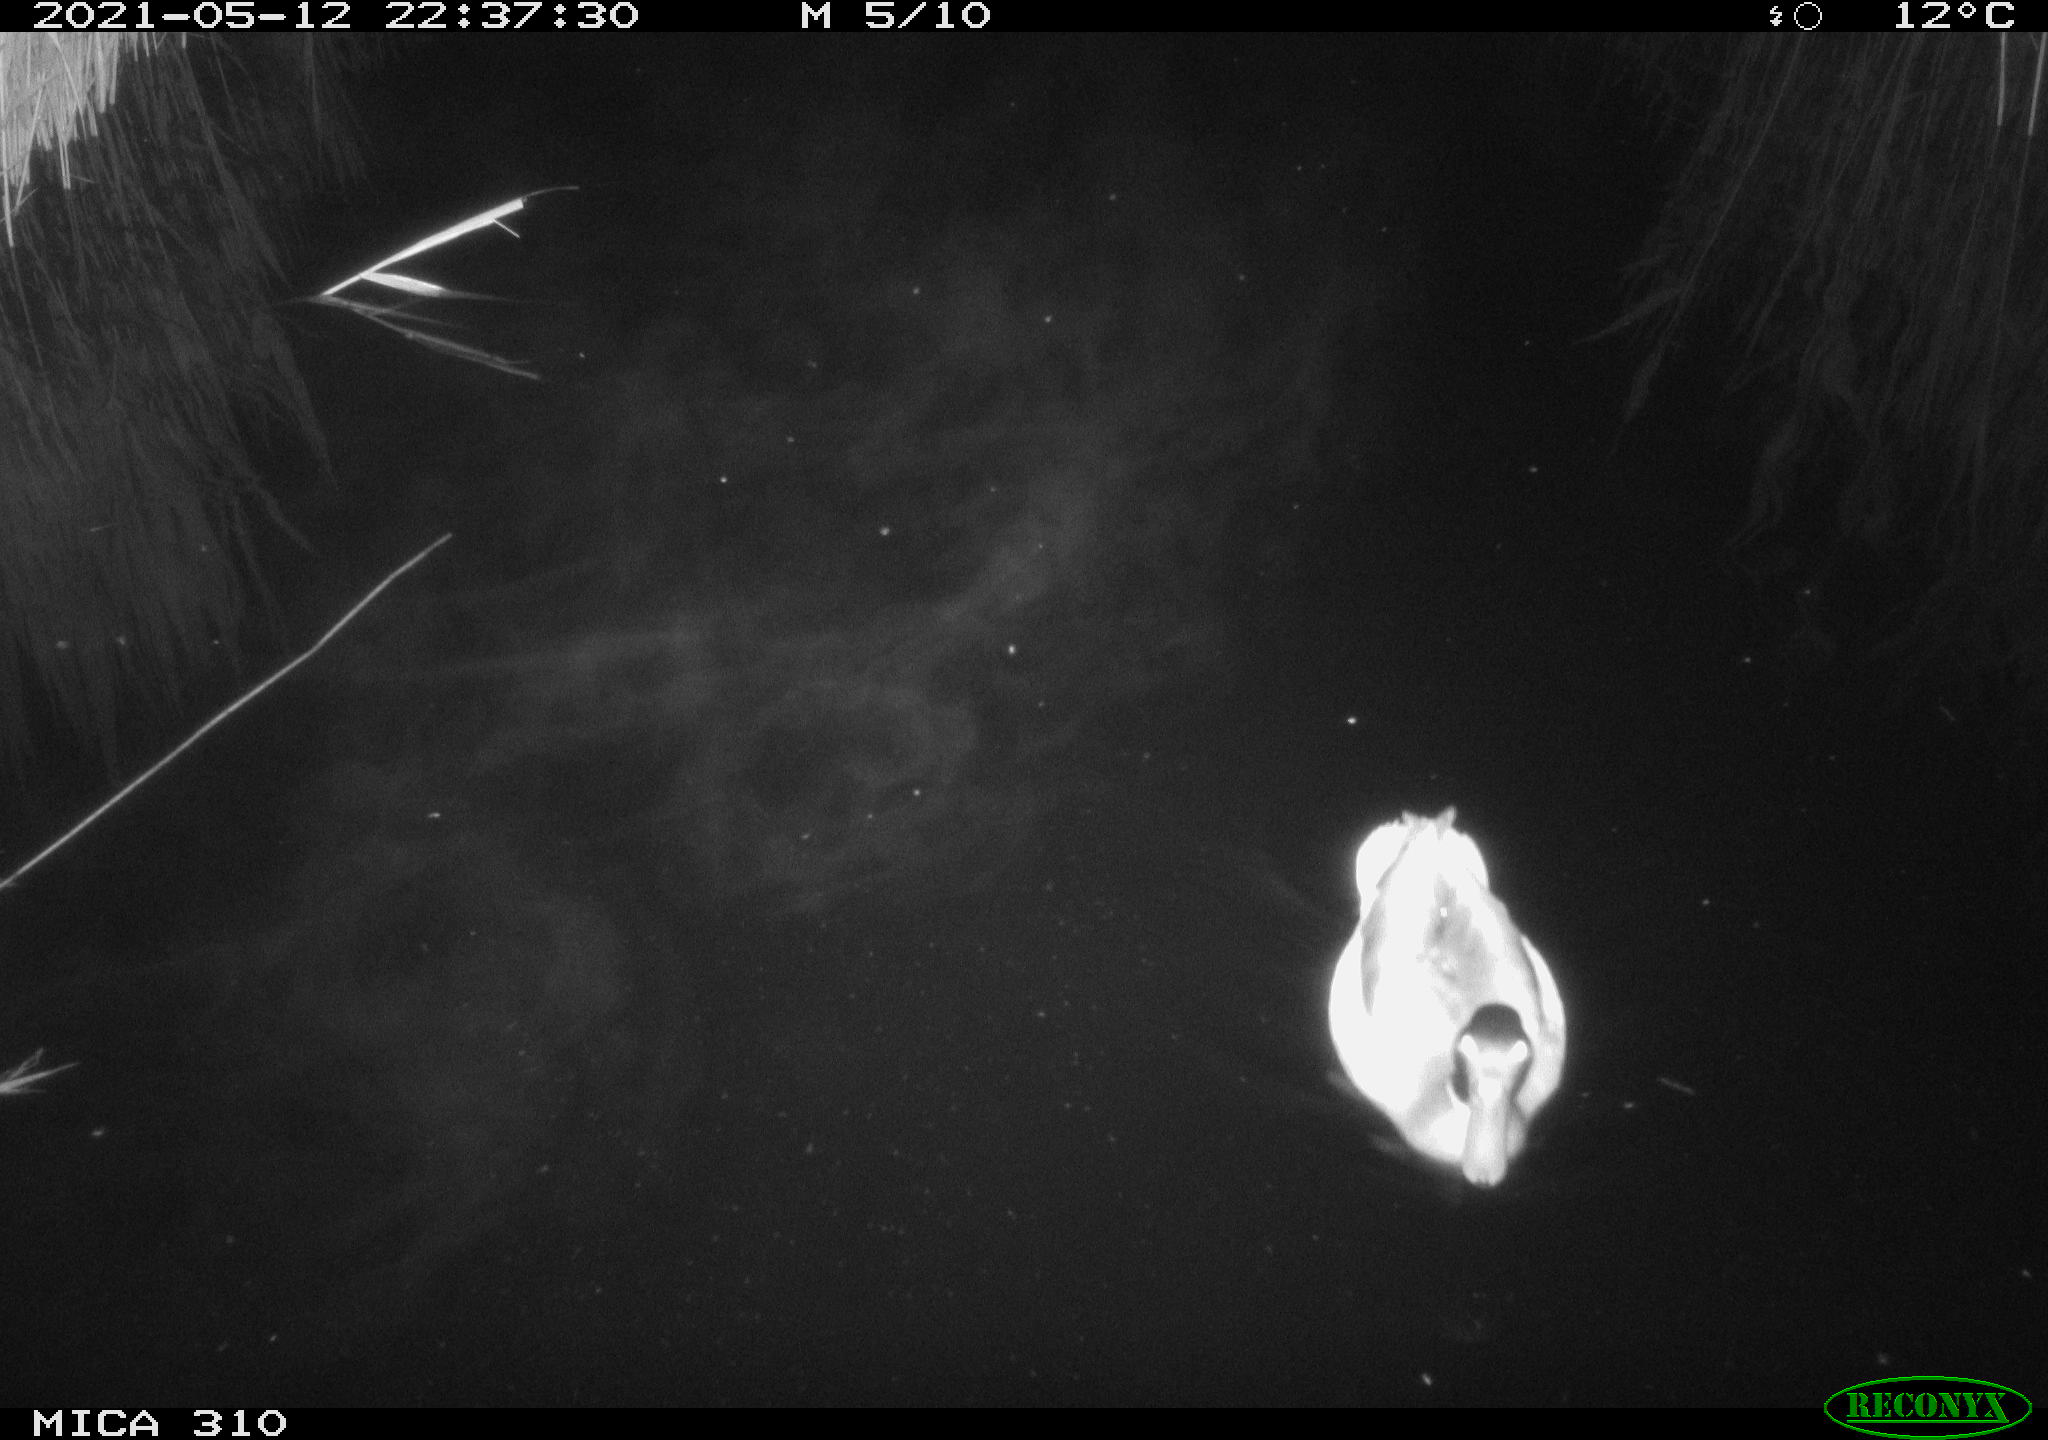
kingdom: Animalia
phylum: Chordata
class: Aves
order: Gruiformes
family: Rallidae
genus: Gallinula
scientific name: Gallinula chloropus
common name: Common moorhen
